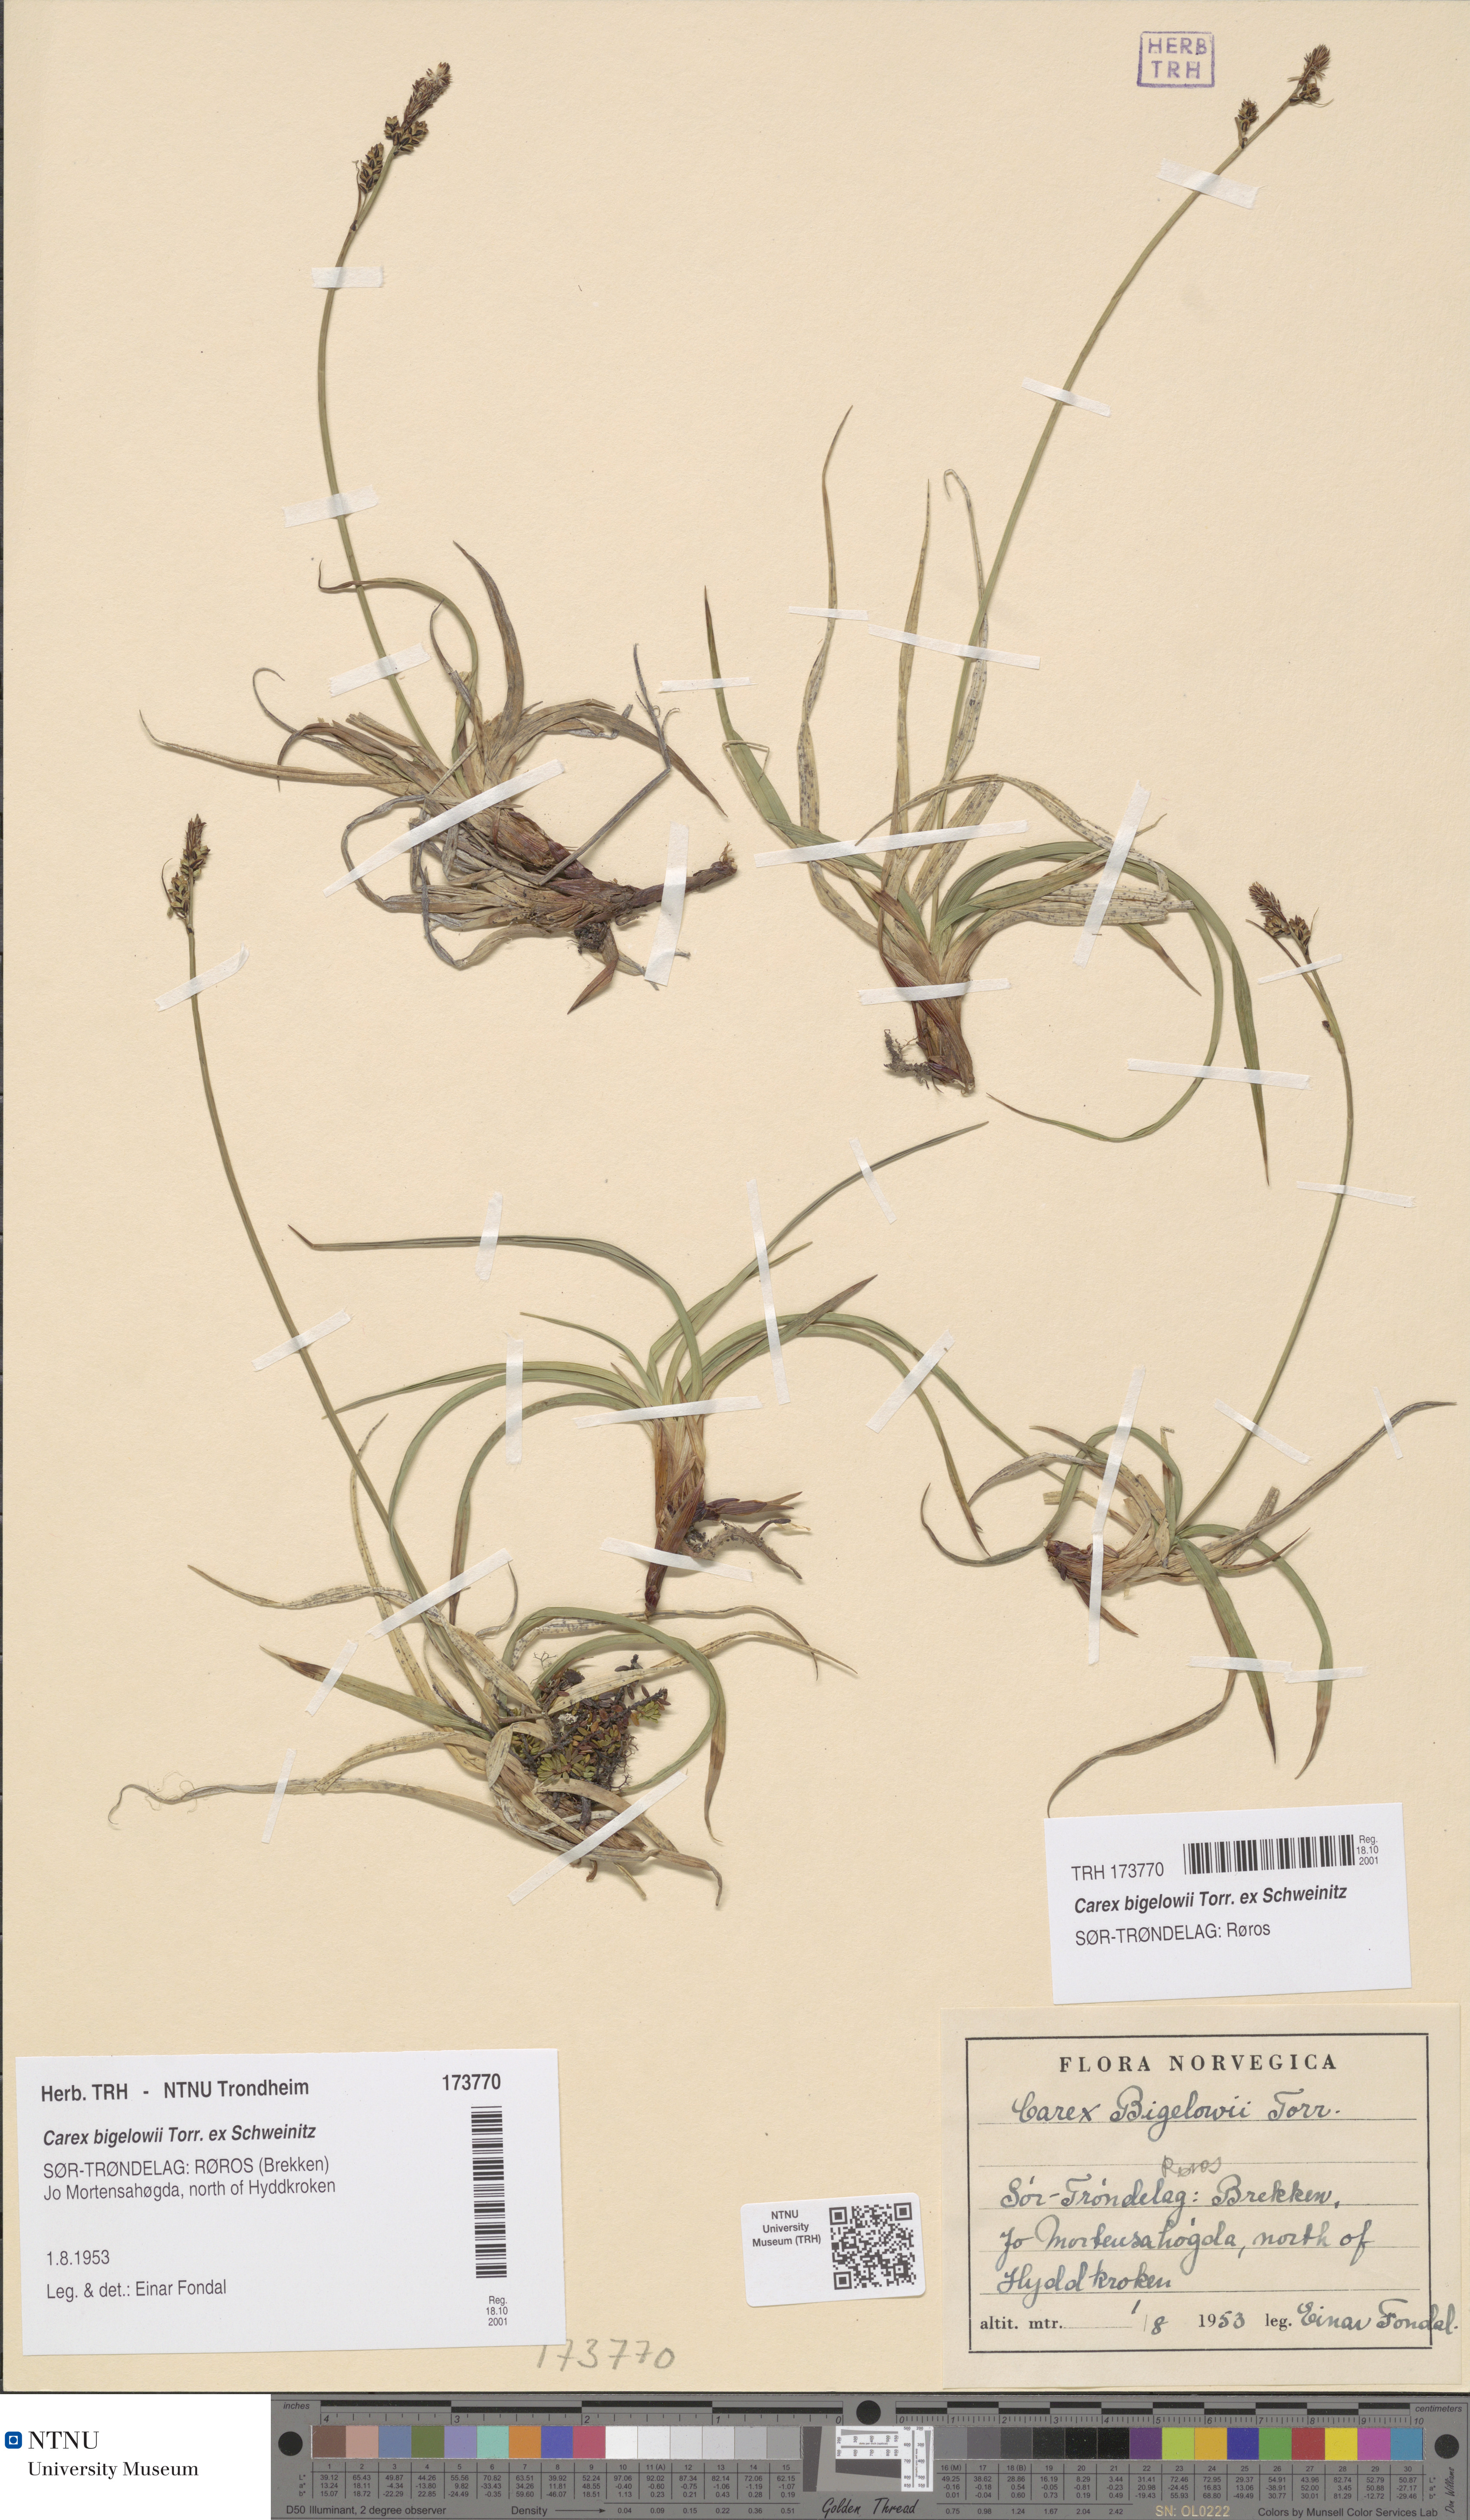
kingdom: Plantae
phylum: Tracheophyta
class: Liliopsida
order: Poales
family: Cyperaceae
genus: Carex
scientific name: Carex bigelowii
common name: Stiff sedge
